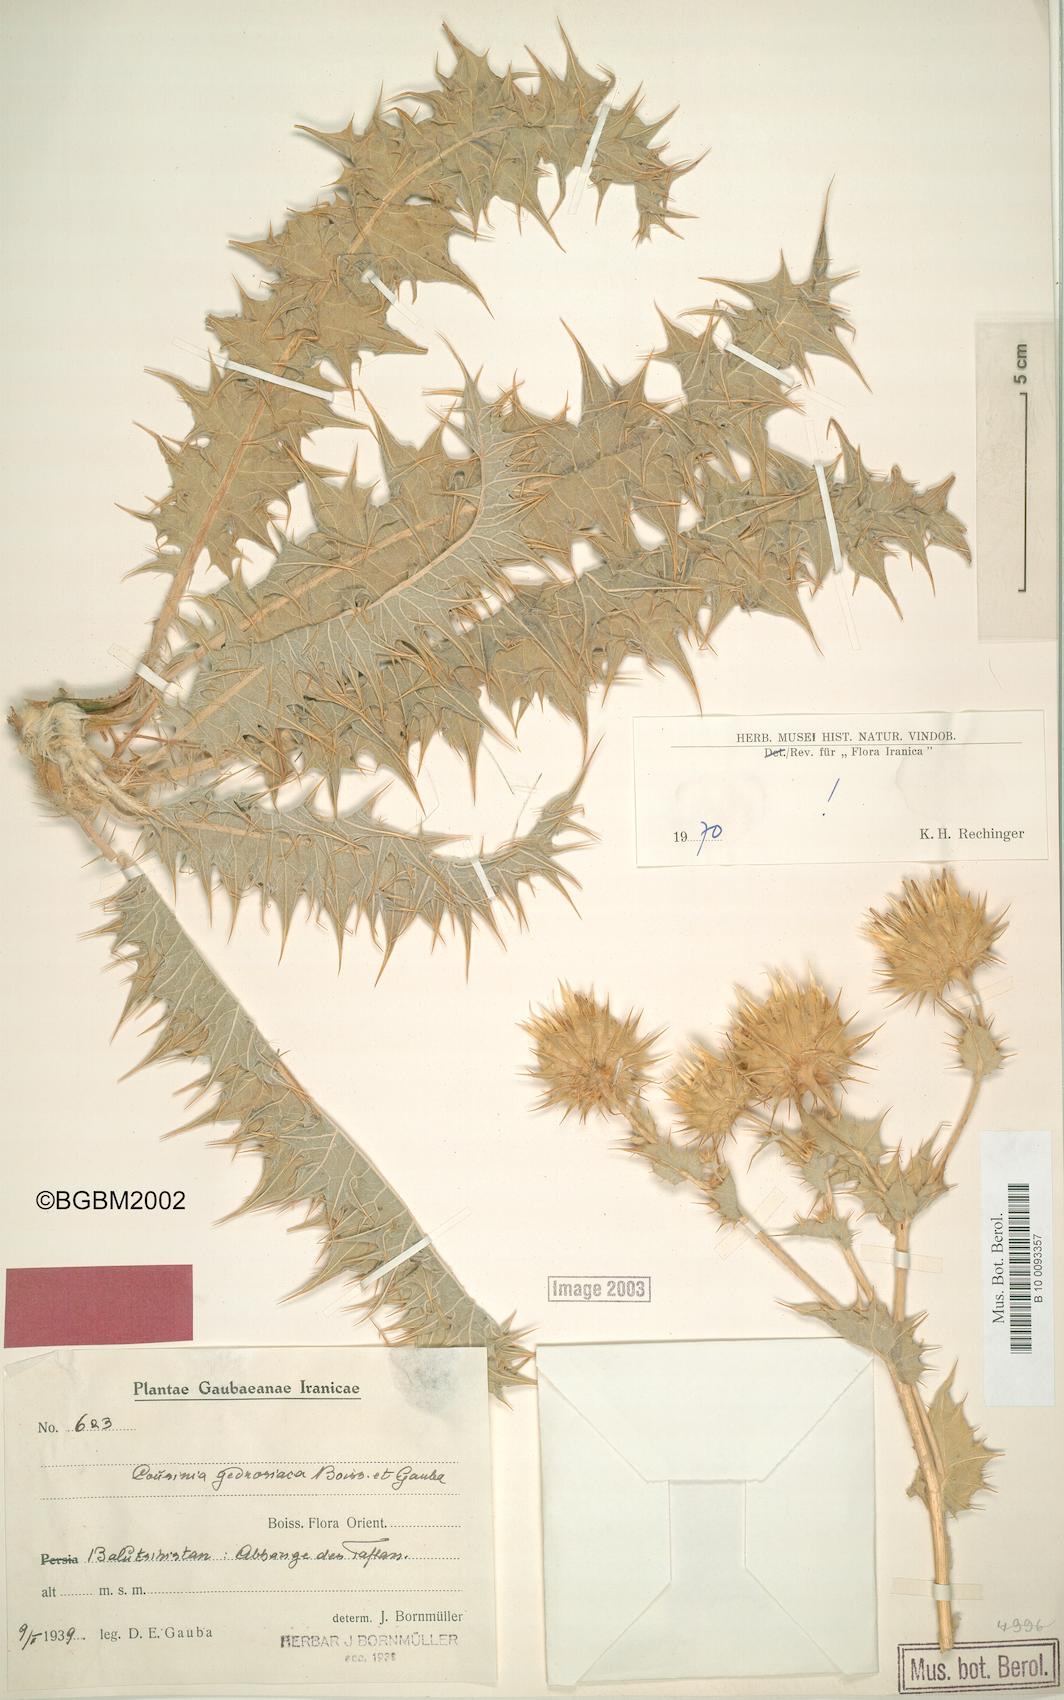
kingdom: Plantae
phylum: Tracheophyta
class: Magnoliopsida
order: Asterales
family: Asteraceae
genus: Cousinia
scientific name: Cousinia gedrosiaca
